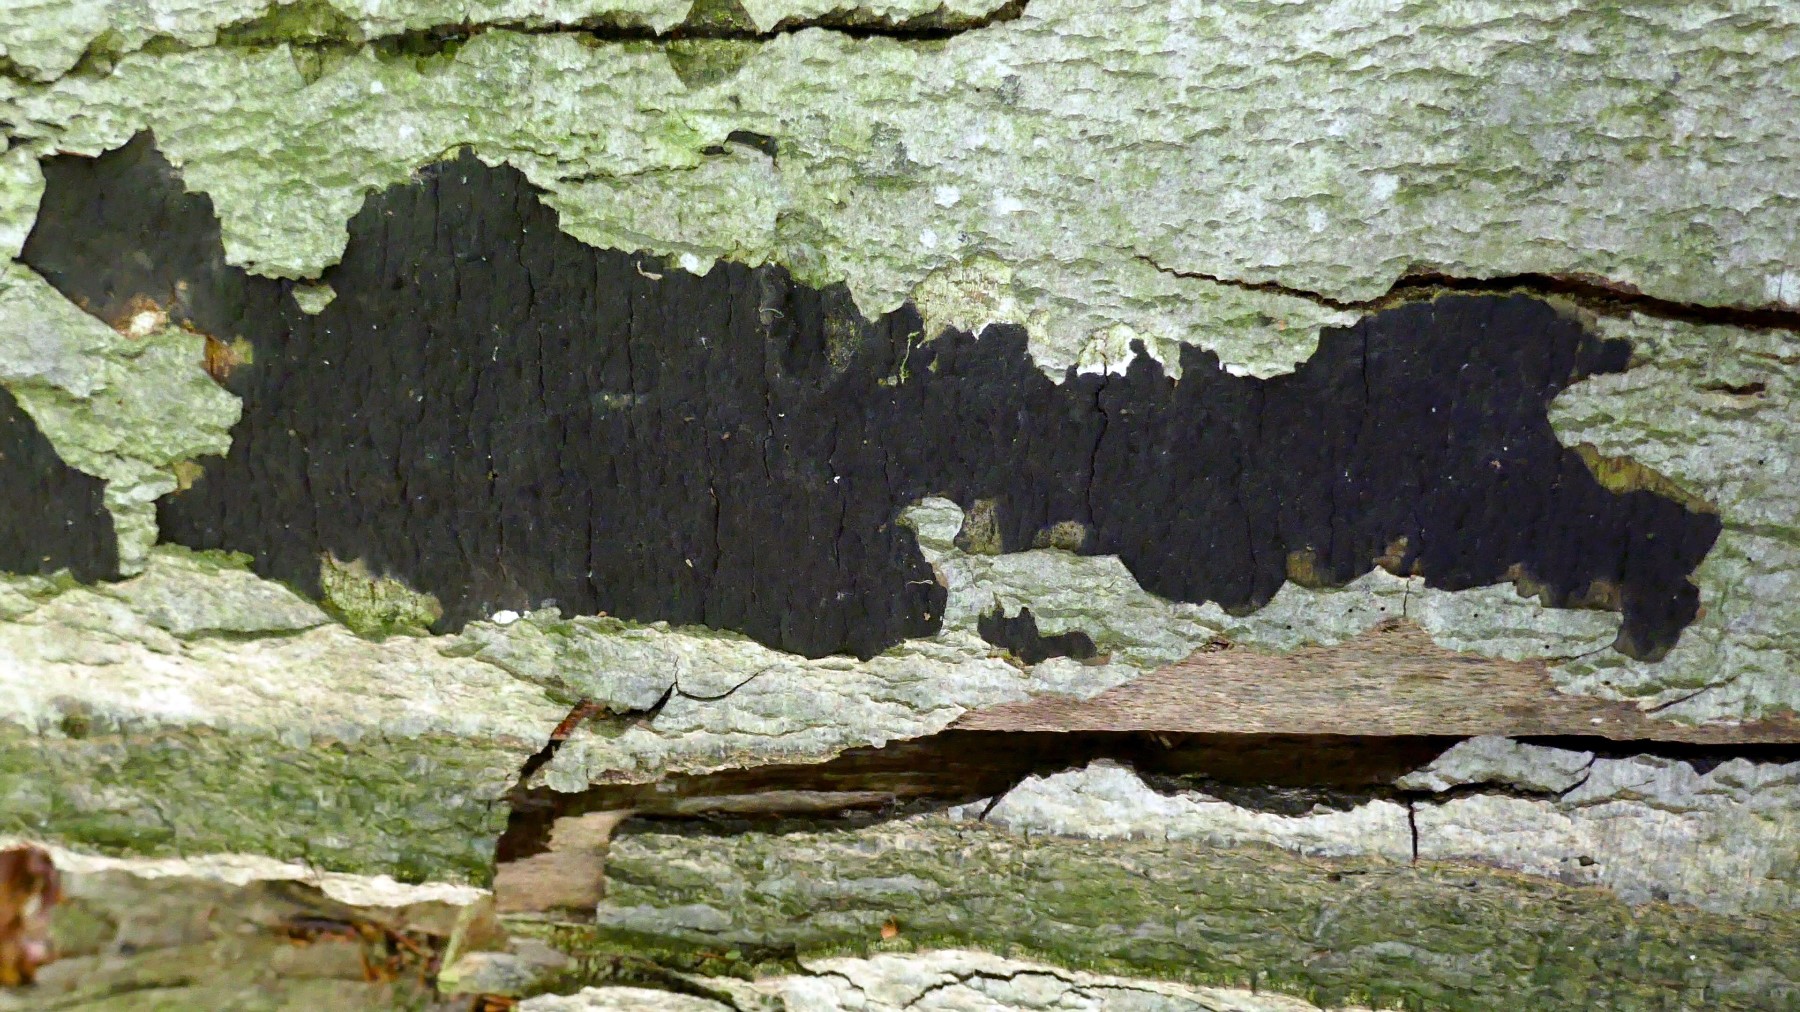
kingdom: Fungi
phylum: Ascomycota
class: Sordariomycetes
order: Xylariales
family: Diatrypaceae
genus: Eutypa
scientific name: Eutypa spinosa
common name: grov kulskorpe
